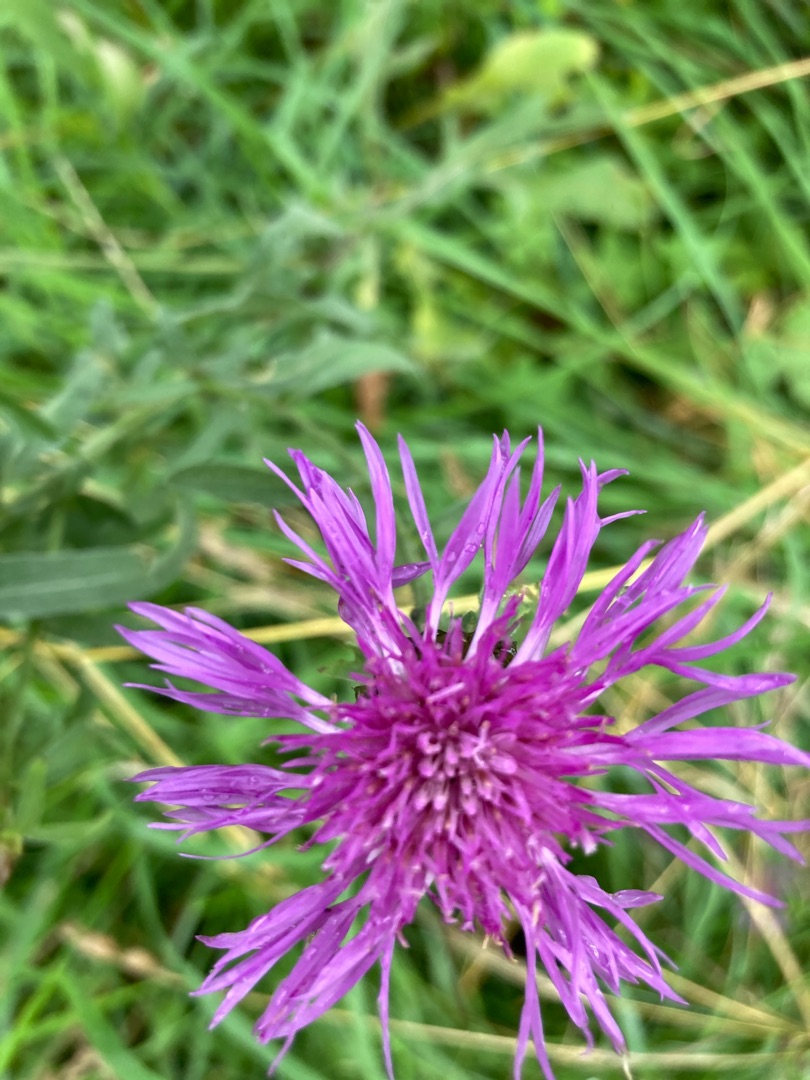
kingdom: Plantae
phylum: Tracheophyta
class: Magnoliopsida
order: Asterales
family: Asteraceae
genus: Centaurea
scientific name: Centaurea jacea
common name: Almindelig knopurt
